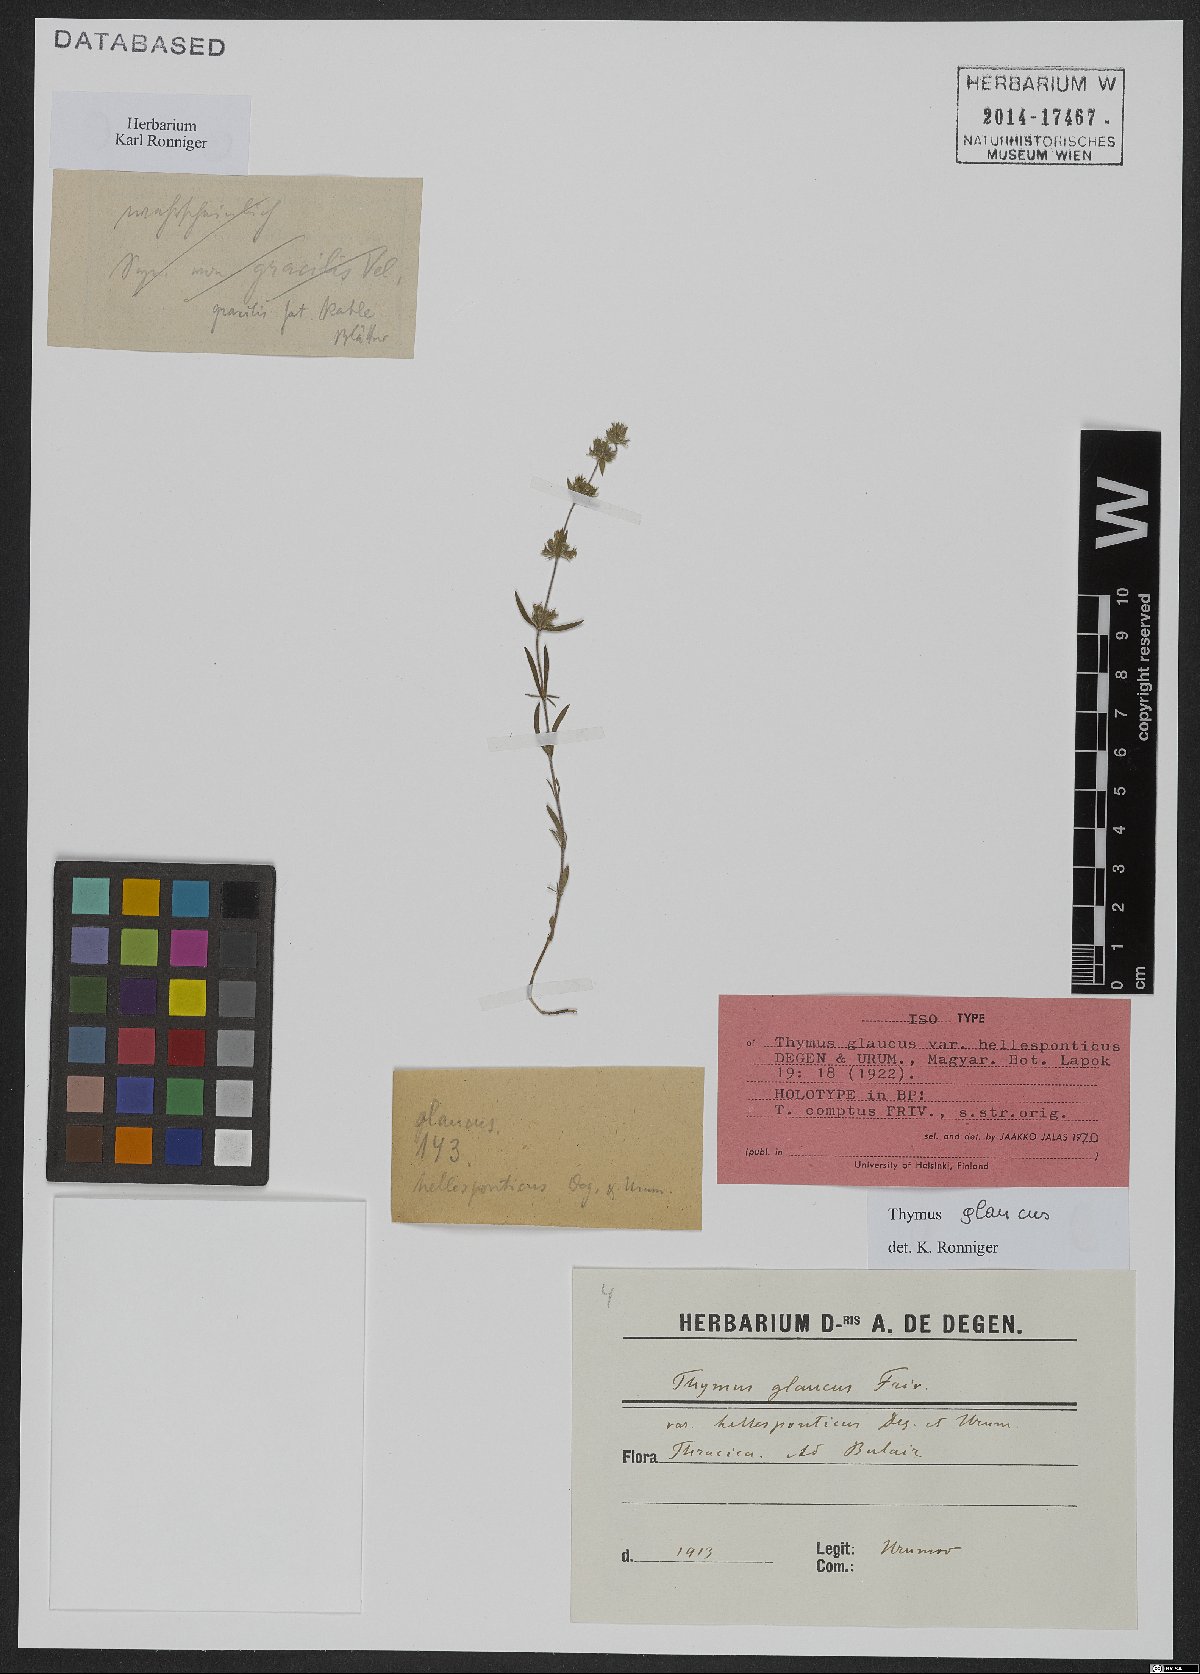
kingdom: Plantae
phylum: Tracheophyta
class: Magnoliopsida
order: Lamiales
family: Lamiaceae
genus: Thymus
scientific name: Thymus comptus
